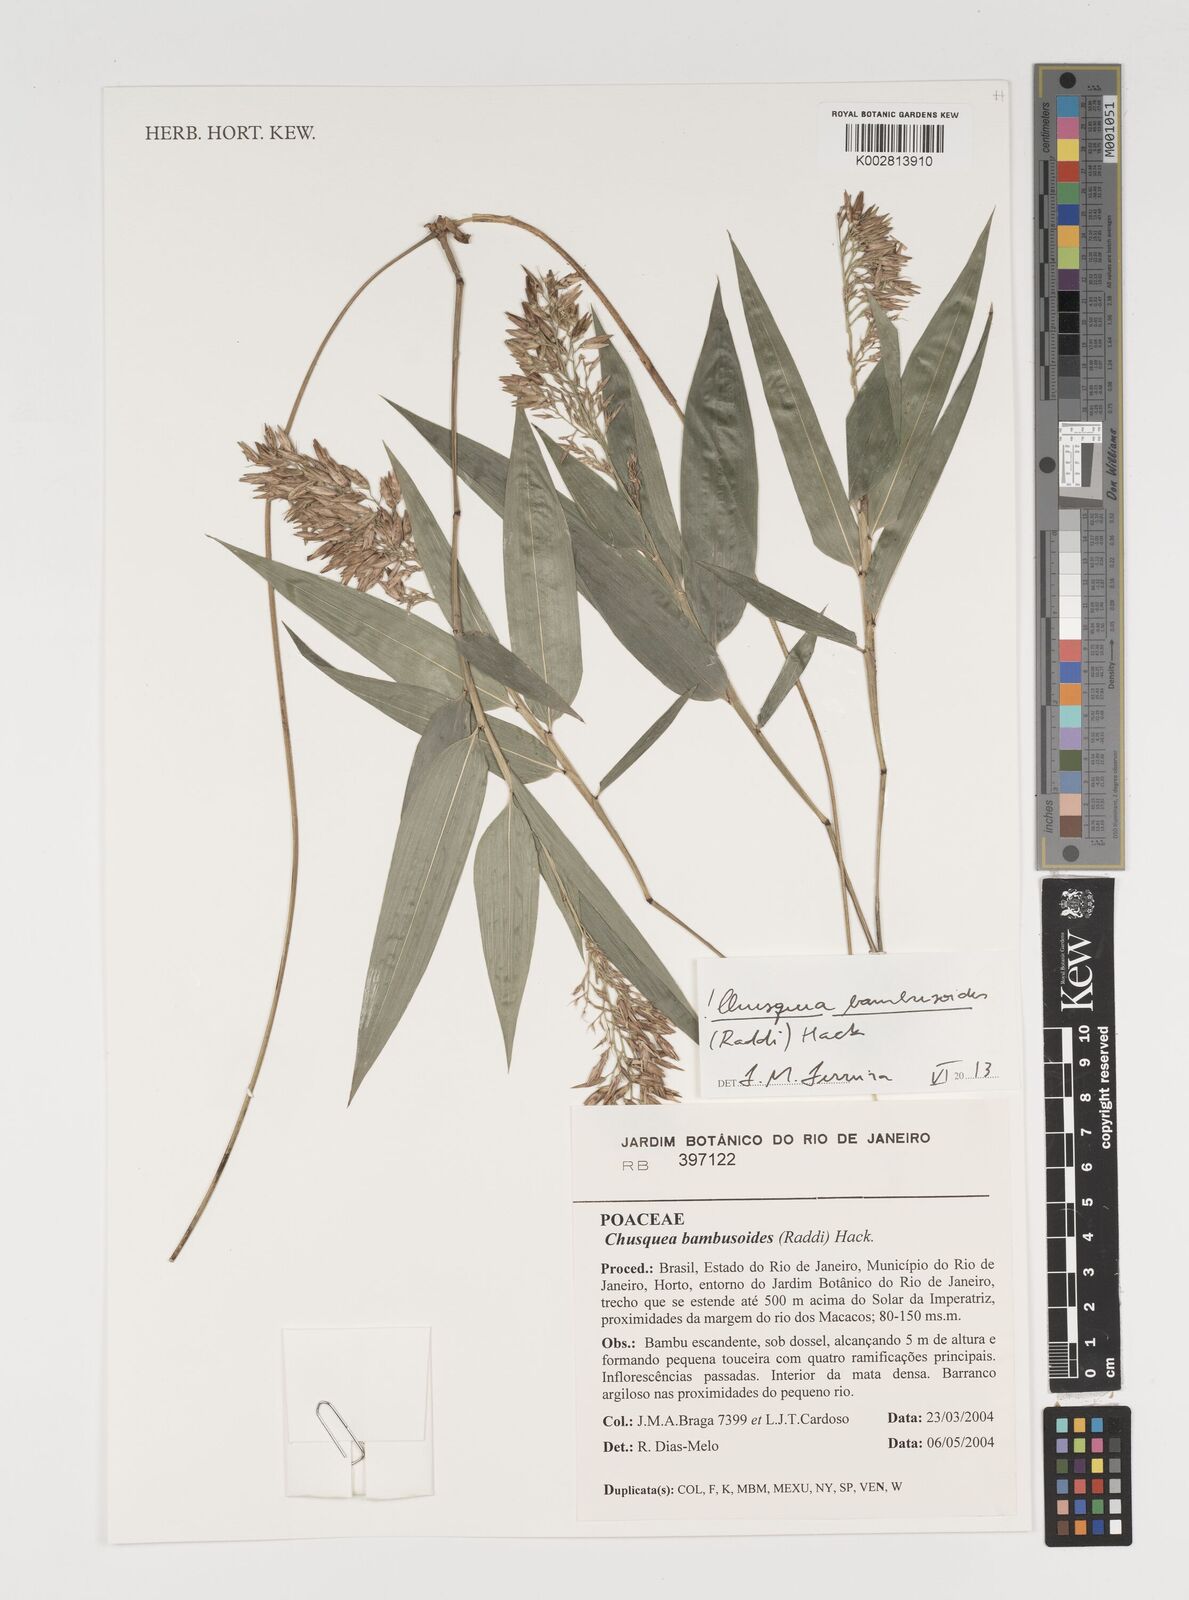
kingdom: Plantae
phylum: Tracheophyta
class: Liliopsida
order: Poales
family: Poaceae
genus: Chusquea
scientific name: Chusquea bambusoides
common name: Brazil scrambling bamboo
